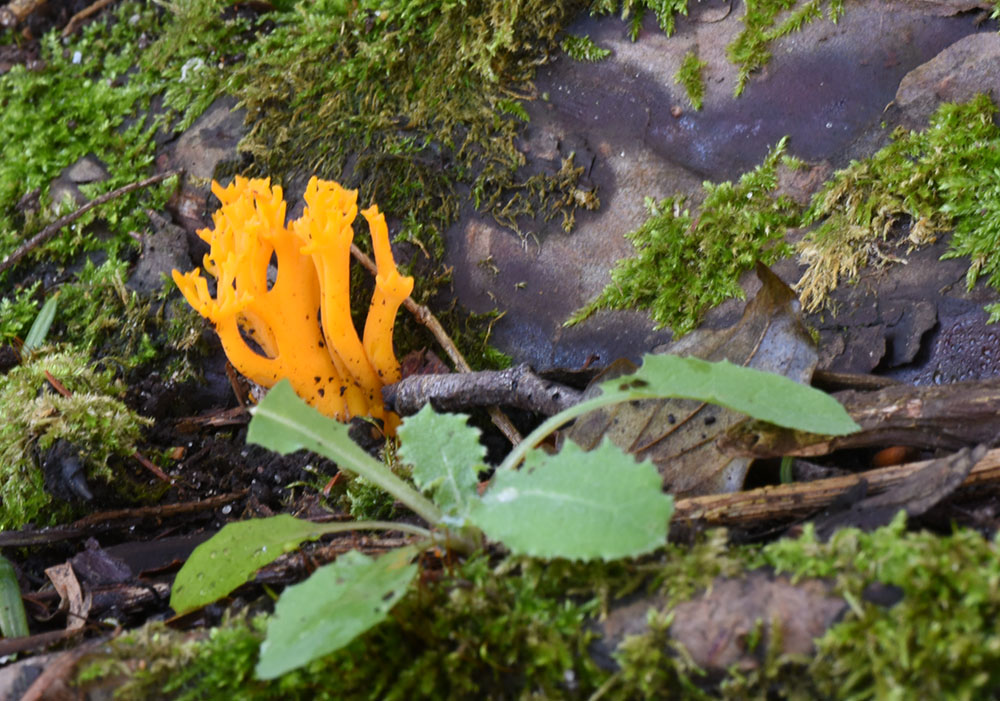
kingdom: Fungi
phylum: Basidiomycota
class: Dacrymycetes
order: Dacrymycetales
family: Dacrymycetaceae
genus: Calocera
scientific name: Calocera viscosa
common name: Yellow stagshorn
